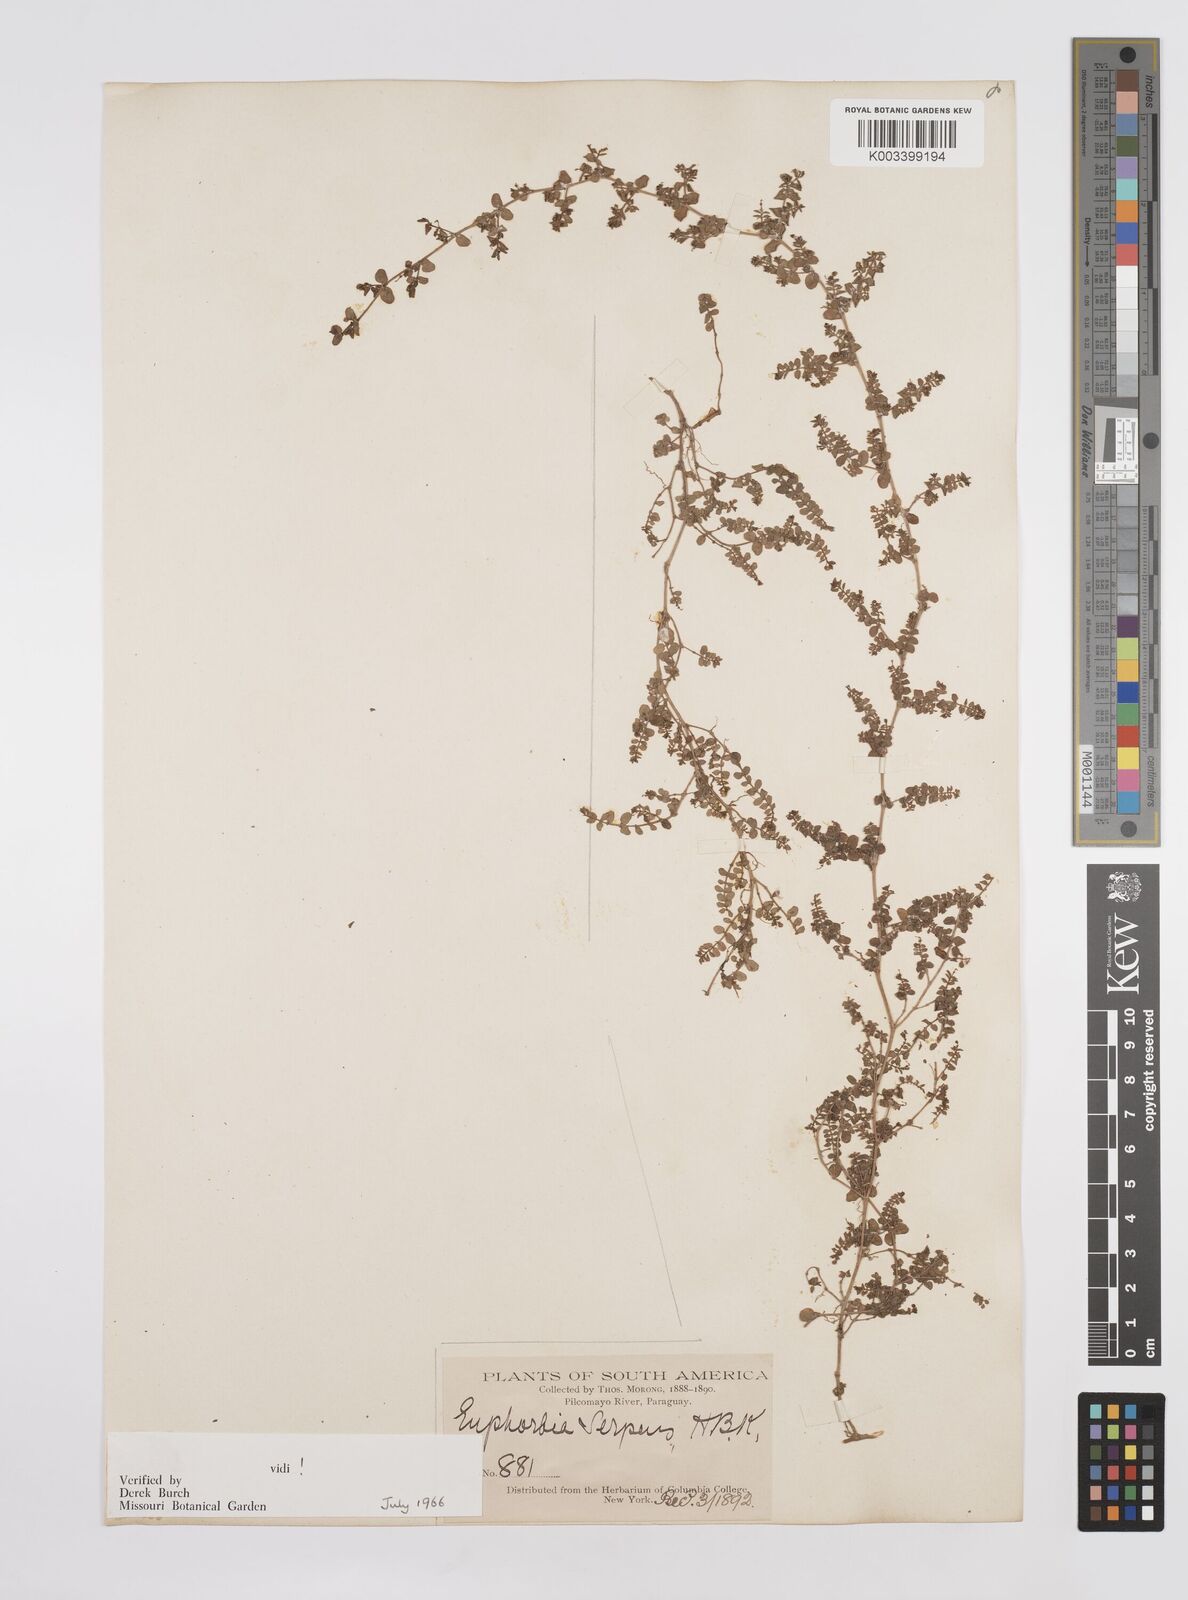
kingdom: Plantae
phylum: Tracheophyta
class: Magnoliopsida
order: Malpighiales
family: Euphorbiaceae
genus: Euphorbia
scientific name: Euphorbia serpens
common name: Matted sandmat
